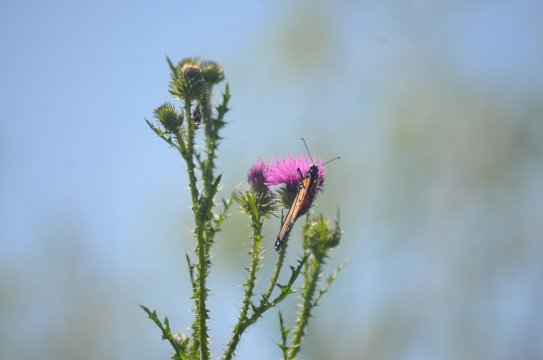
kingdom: Animalia
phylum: Arthropoda
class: Insecta
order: Lepidoptera
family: Nymphalidae
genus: Danaus
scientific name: Danaus plexippus
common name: Monarch
